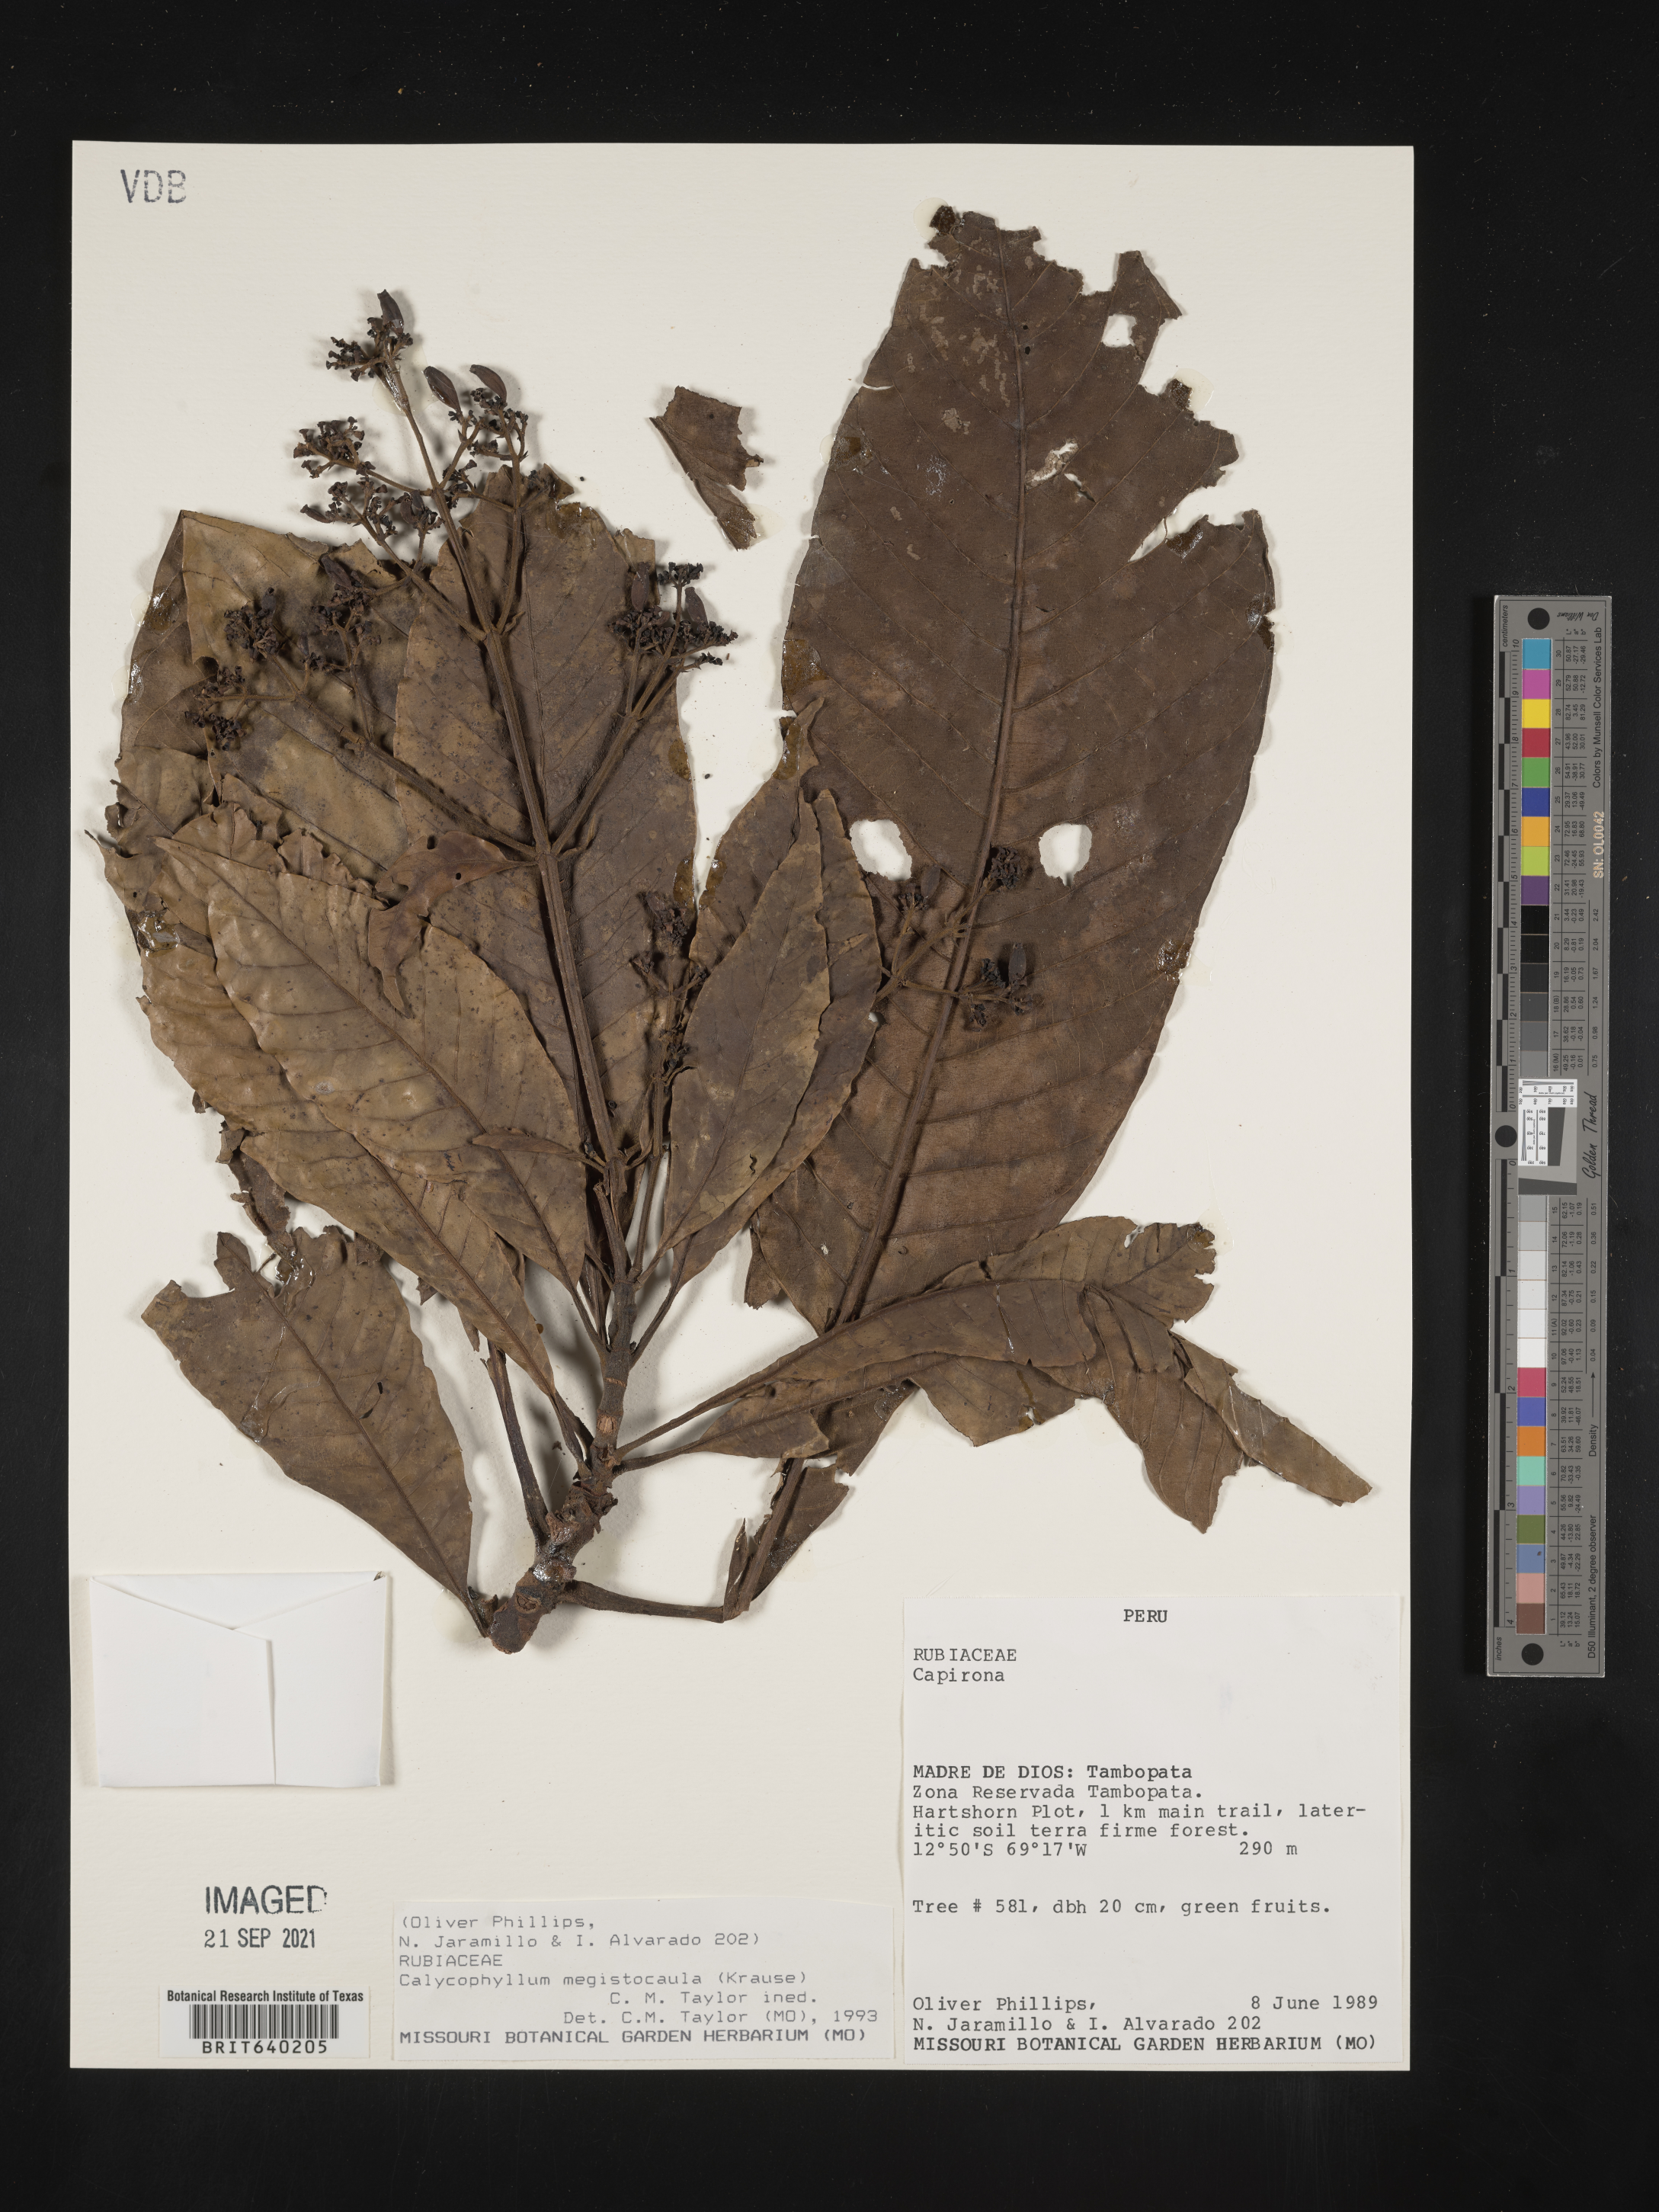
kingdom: Plantae
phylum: Tracheophyta
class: Magnoliopsida
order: Gentianales
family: Rubiaceae
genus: Calycophyllum
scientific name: Calycophyllum
